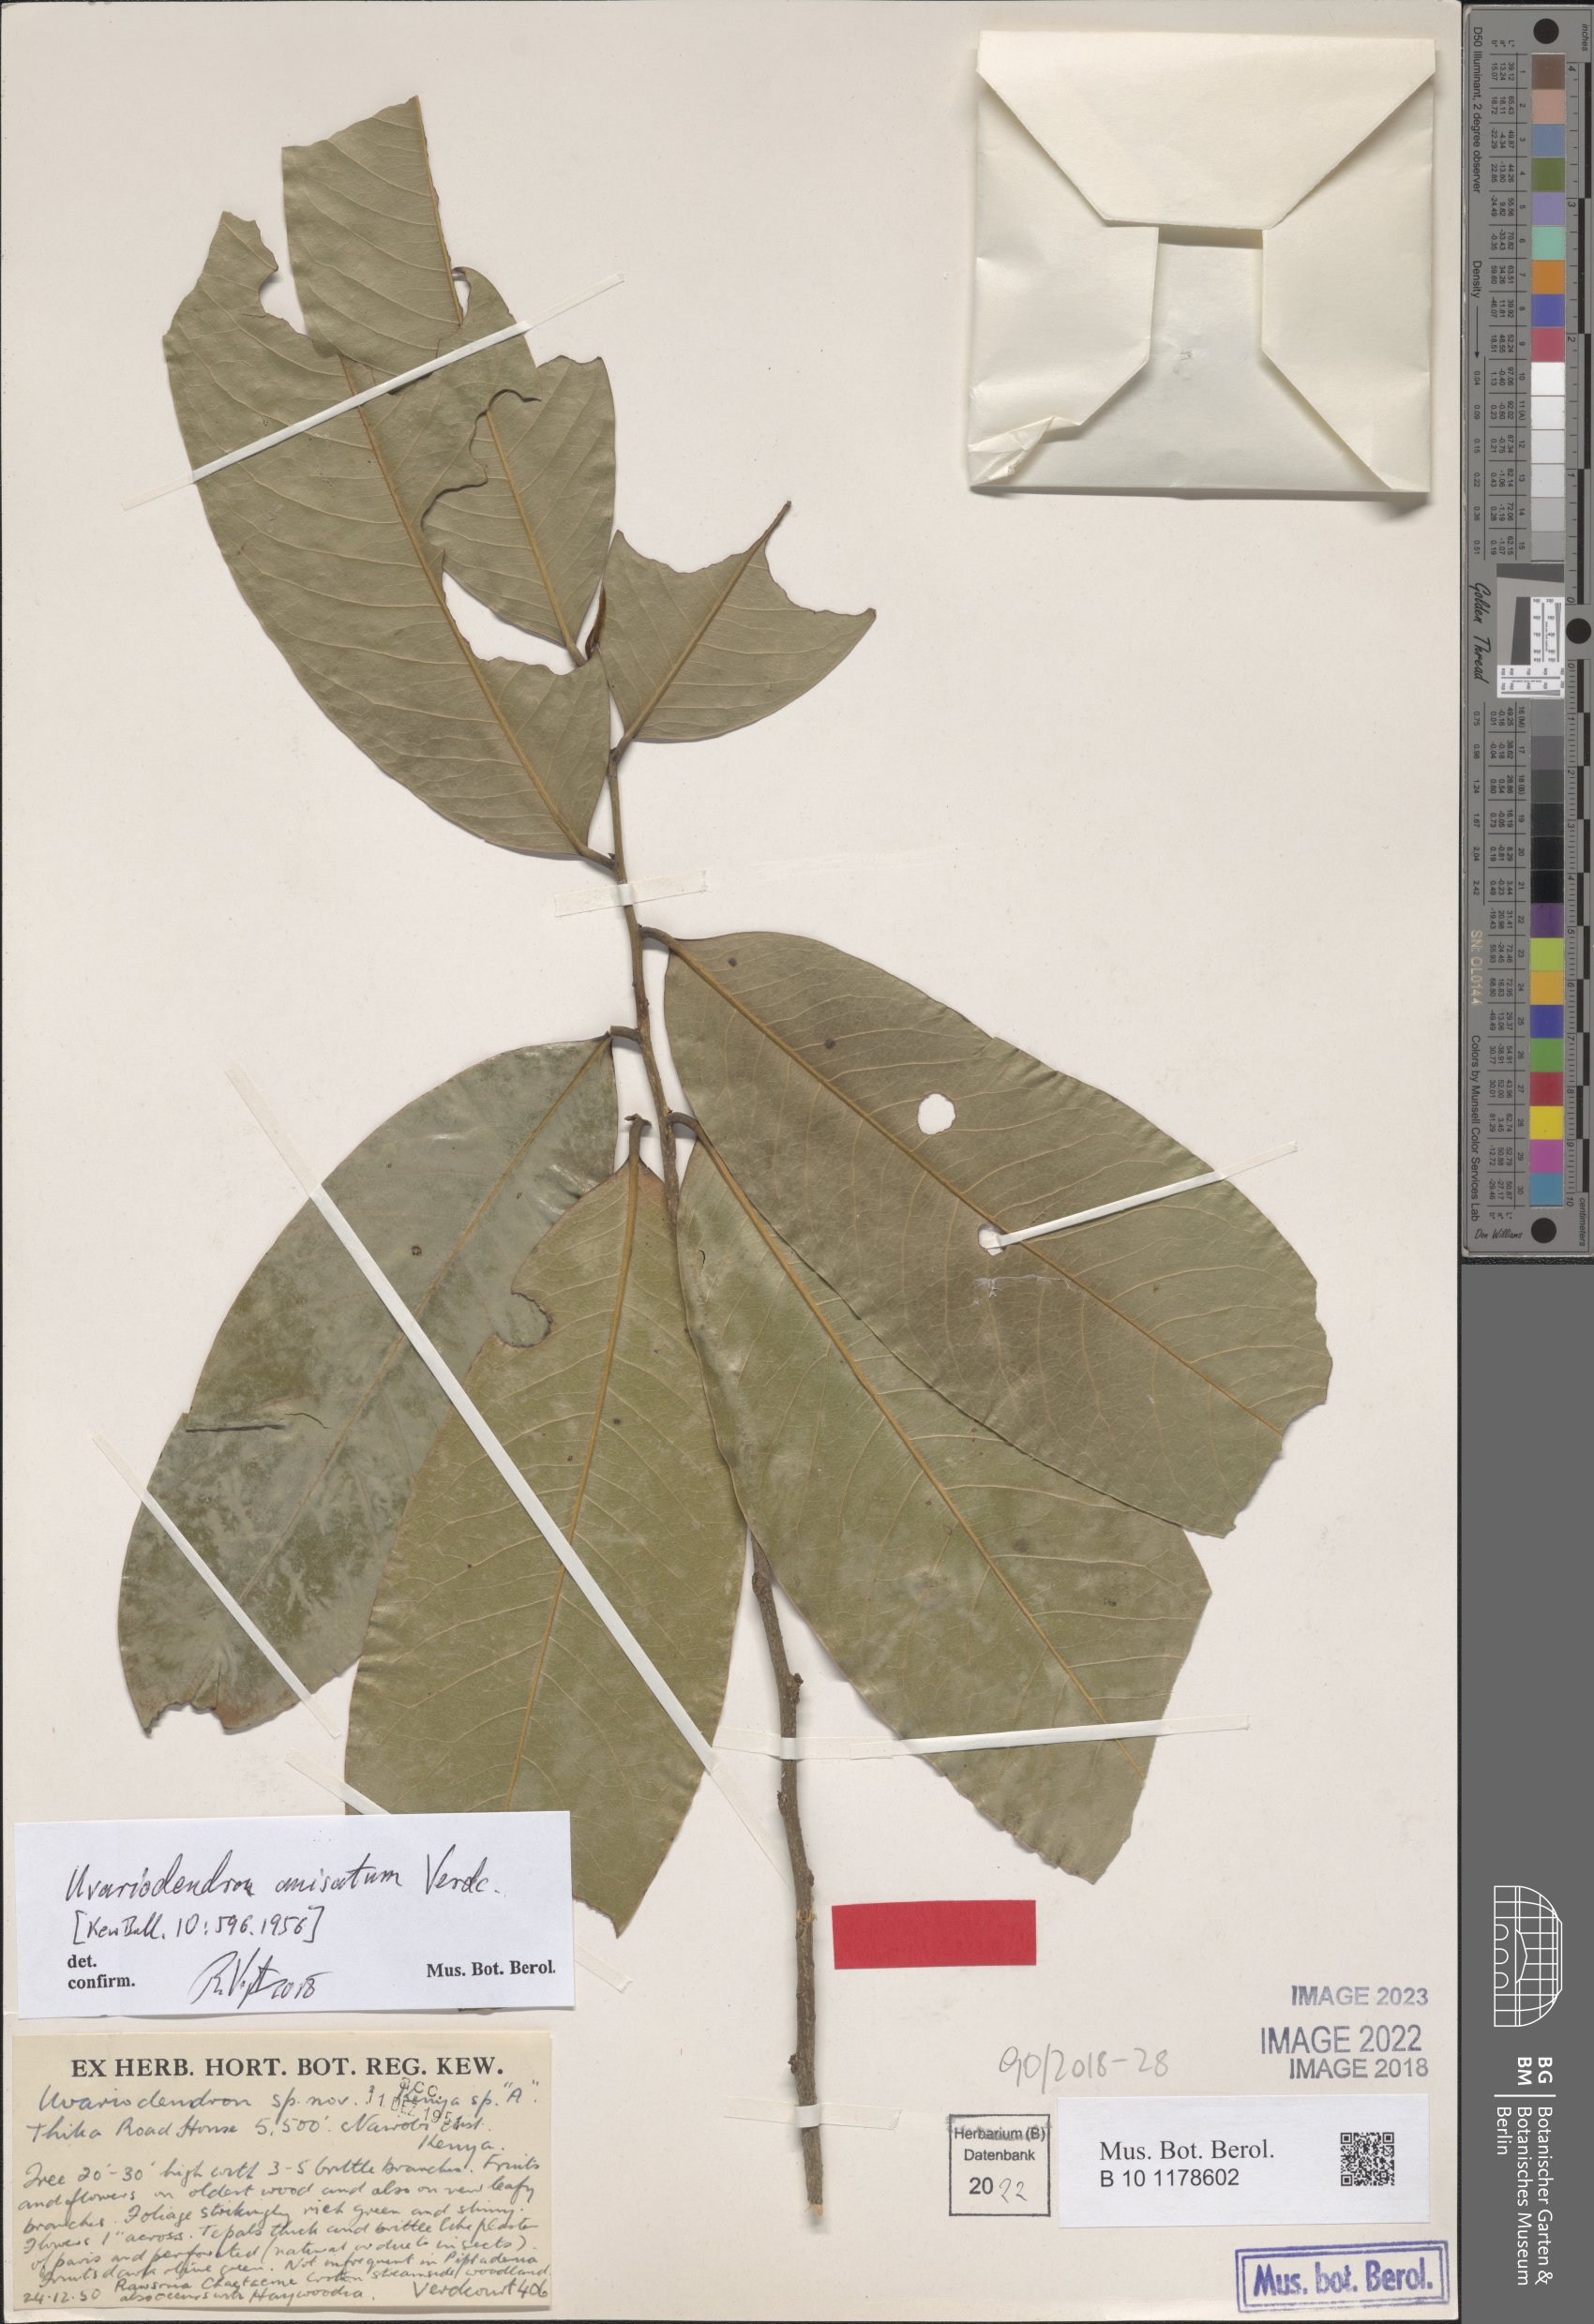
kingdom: Plantae
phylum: Tracheophyta
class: Magnoliopsida
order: Magnoliales
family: Annonaceae
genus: Uvariodendron
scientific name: Uvariodendron anisatum
